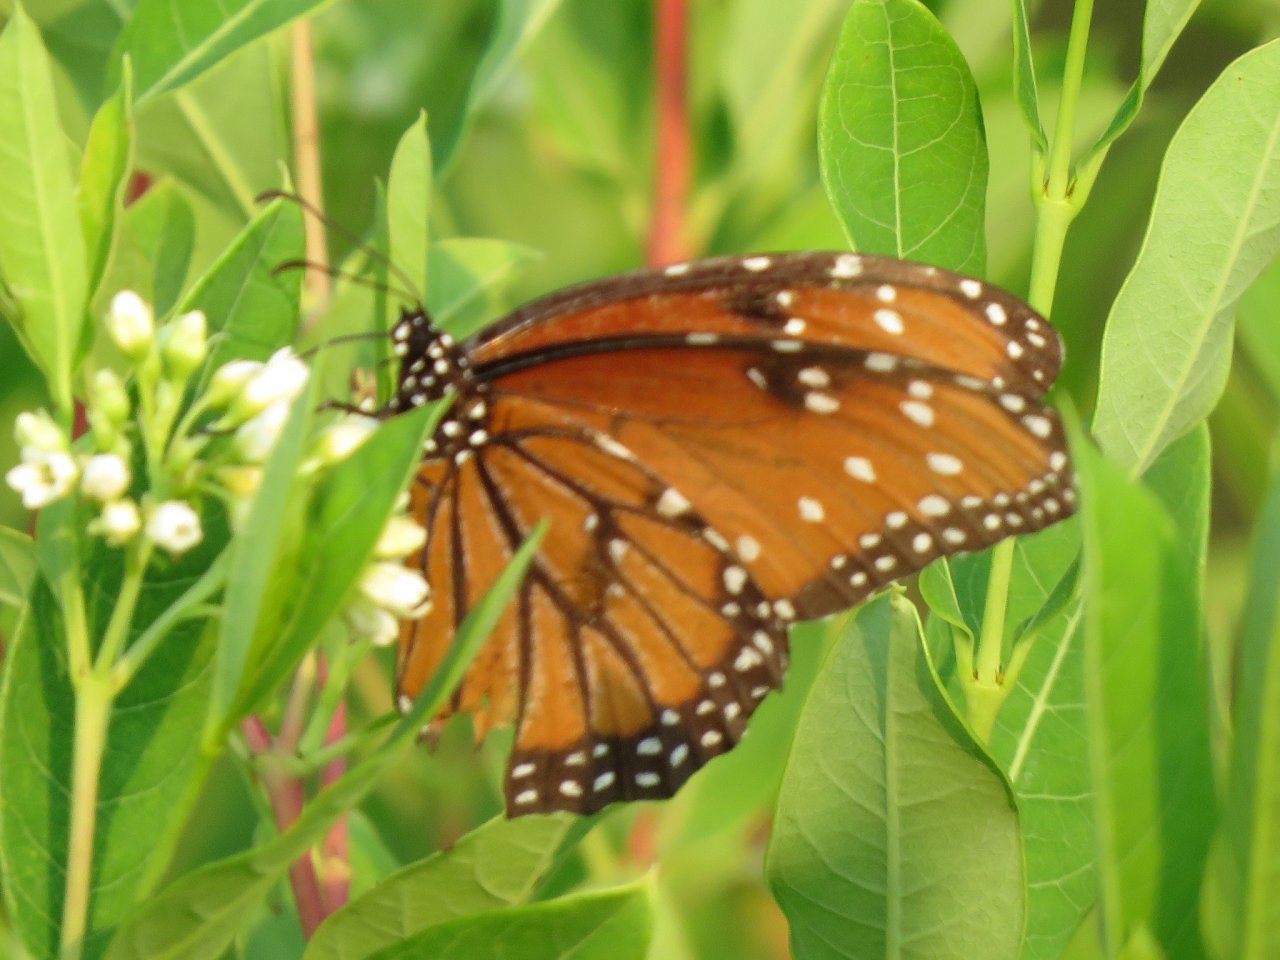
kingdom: Animalia
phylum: Arthropoda
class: Insecta
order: Lepidoptera
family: Nymphalidae
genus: Danaus
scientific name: Danaus gilippus
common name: Queen
